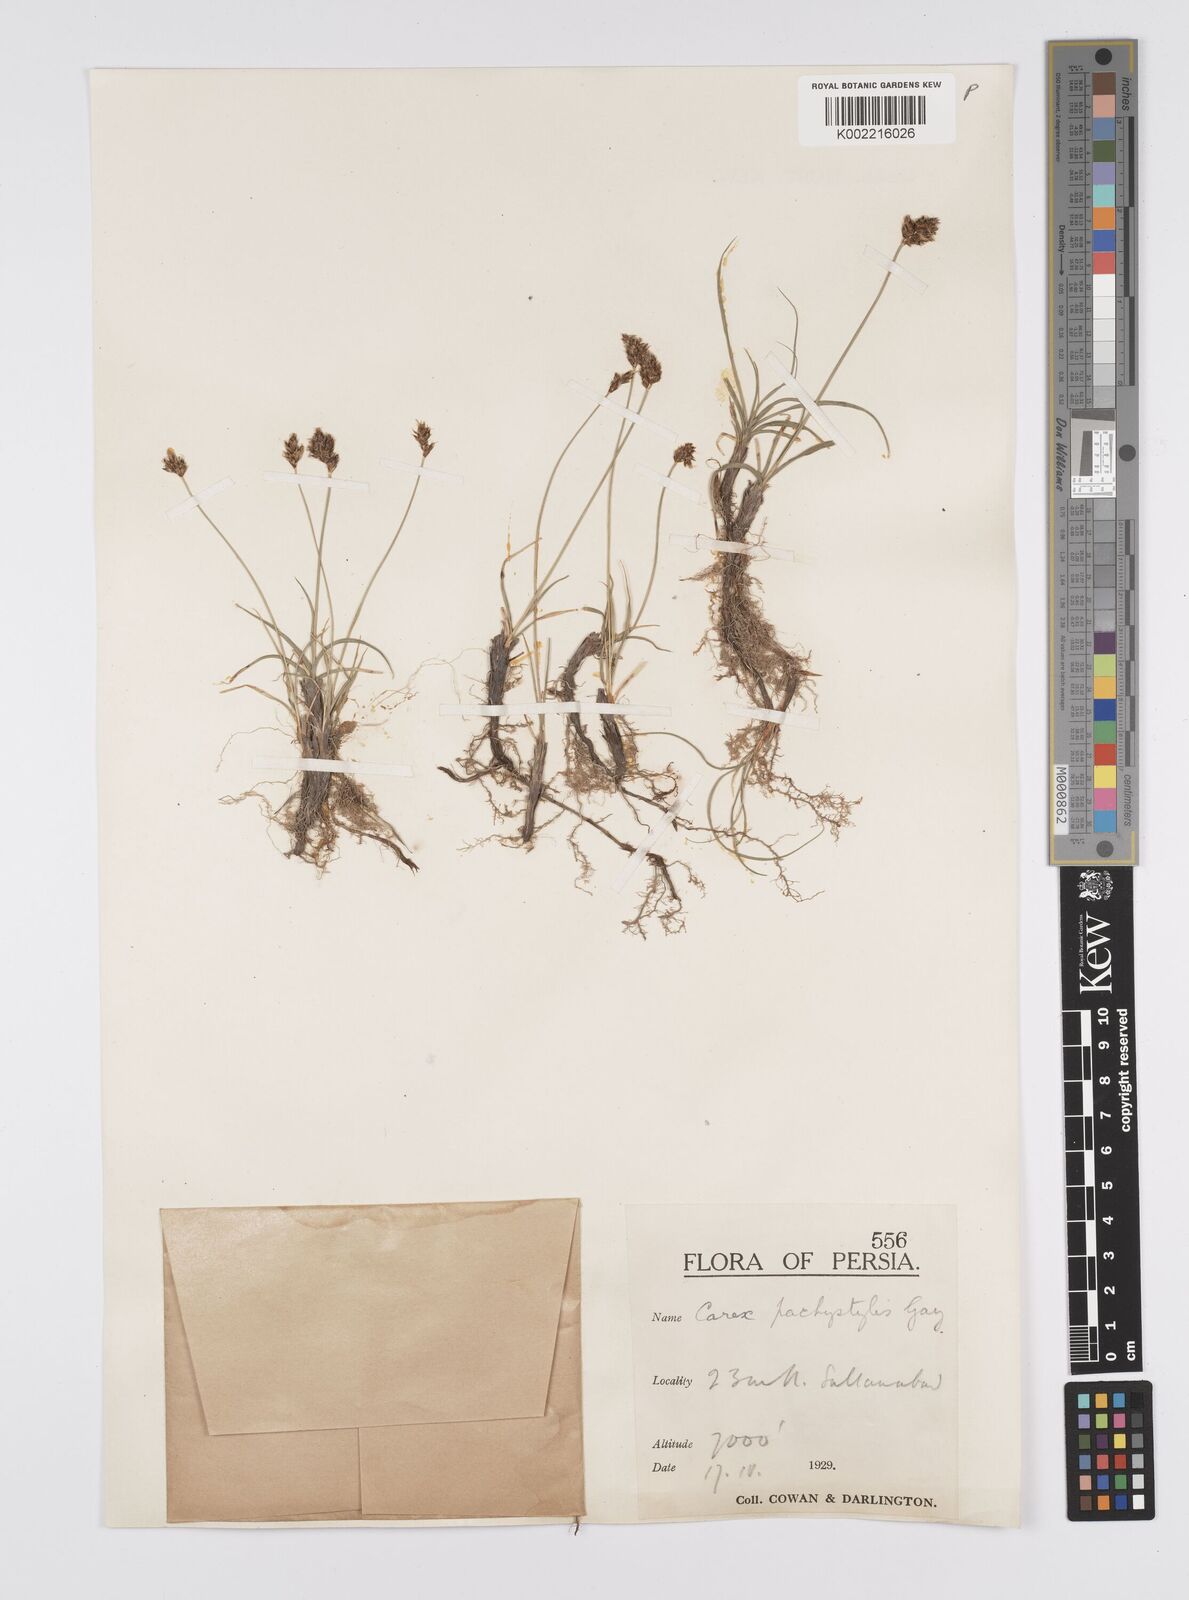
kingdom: Plantae
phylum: Tracheophyta
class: Liliopsida
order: Poales
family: Cyperaceae
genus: Carex
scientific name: Carex pachystylis
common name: Thick-stem sedge
